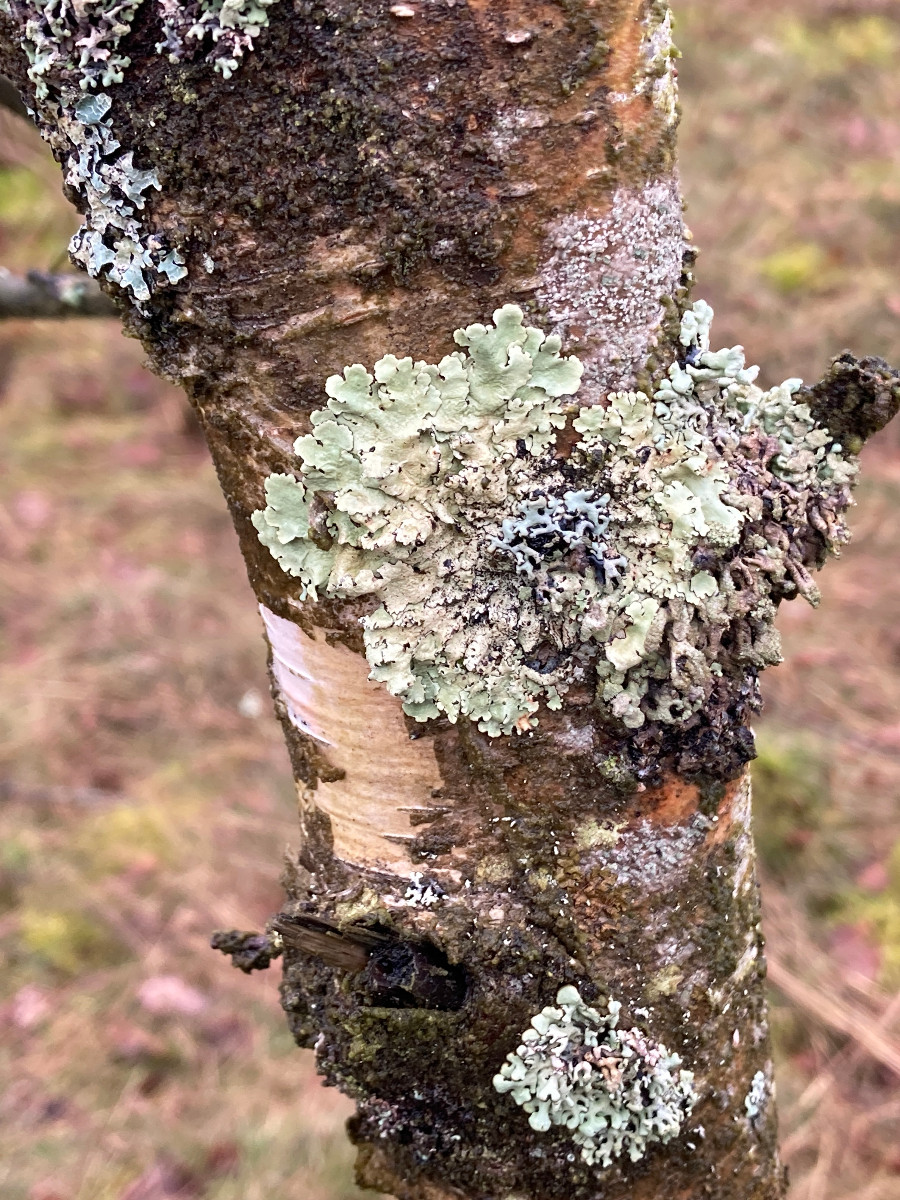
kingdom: Fungi
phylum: Ascomycota
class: Lecanoromycetes
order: Lecanorales
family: Parmeliaceae
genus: Flavoparmelia
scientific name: Flavoparmelia caperata
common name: gulgrøn skållav
